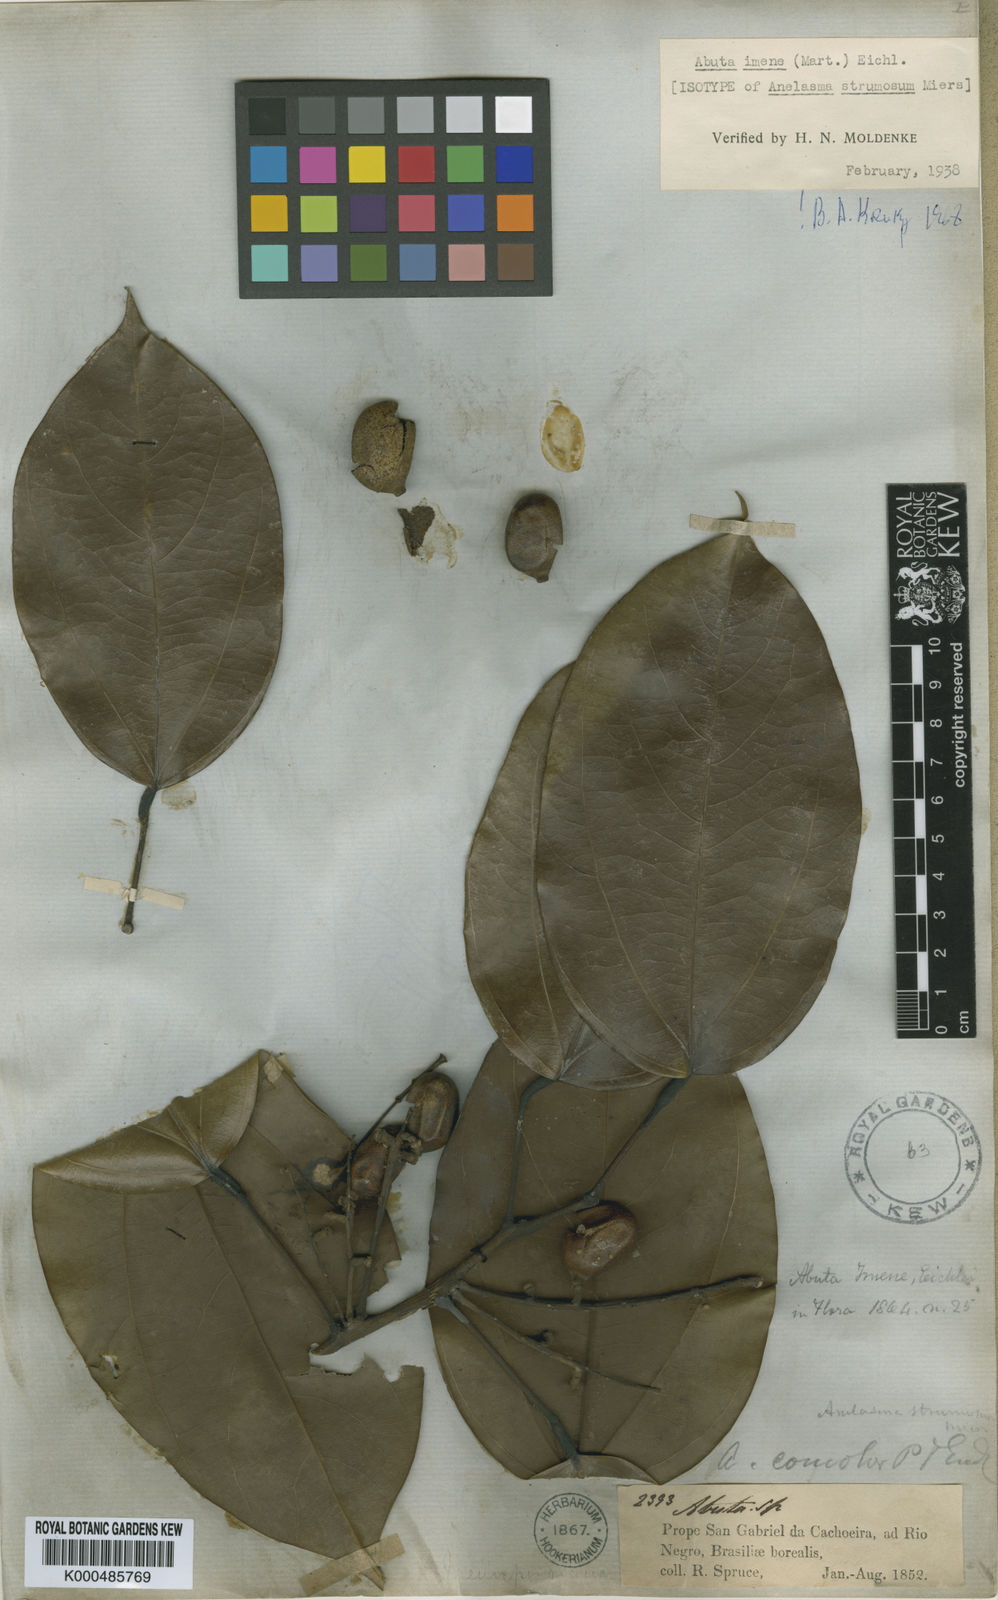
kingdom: Plantae
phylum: Tracheophyta
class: Magnoliopsida
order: Ranunculales
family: Menispermaceae
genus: Abuta
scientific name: Abuta imene
